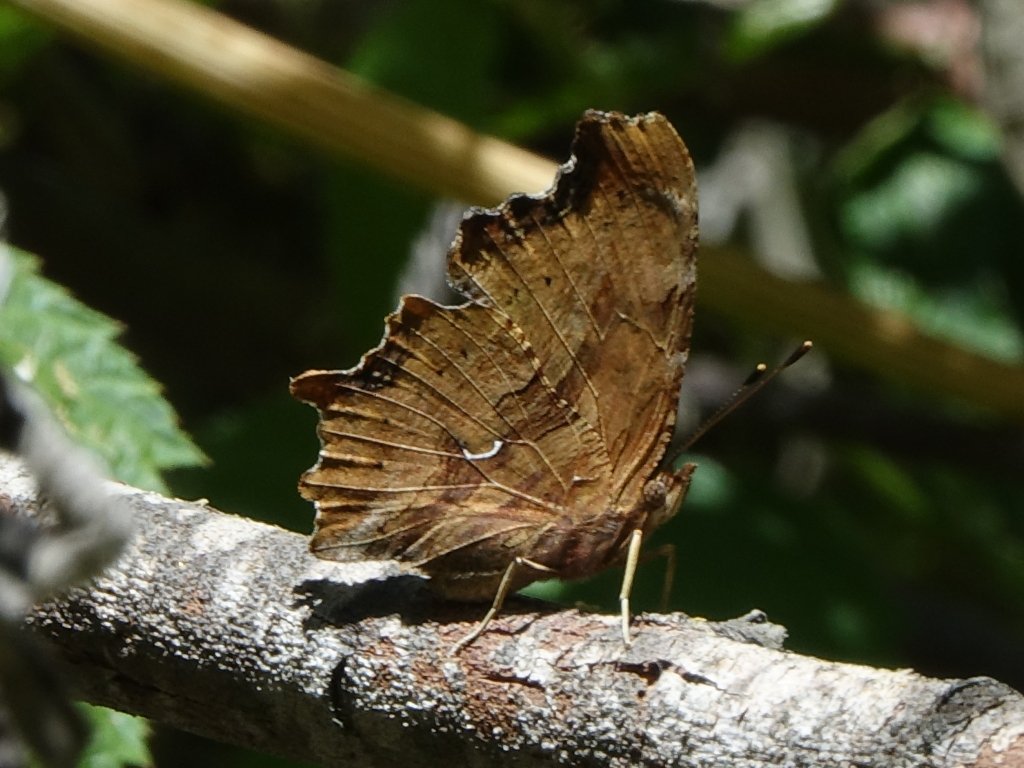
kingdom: Animalia
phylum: Arthropoda
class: Insecta
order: Lepidoptera
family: Nymphalidae
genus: Polygonia
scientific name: Polygonia satyrus
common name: Satyr Comma
